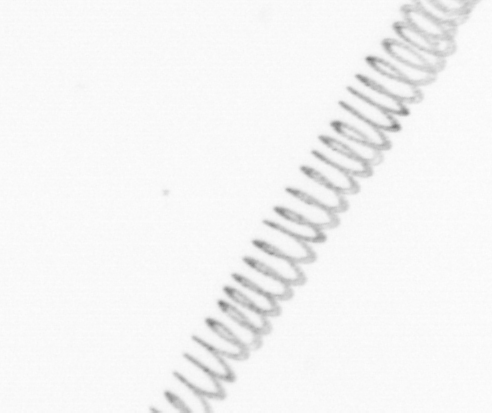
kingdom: Chromista
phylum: Ochrophyta
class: Bacillariophyceae
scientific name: Bacillariophyceae
